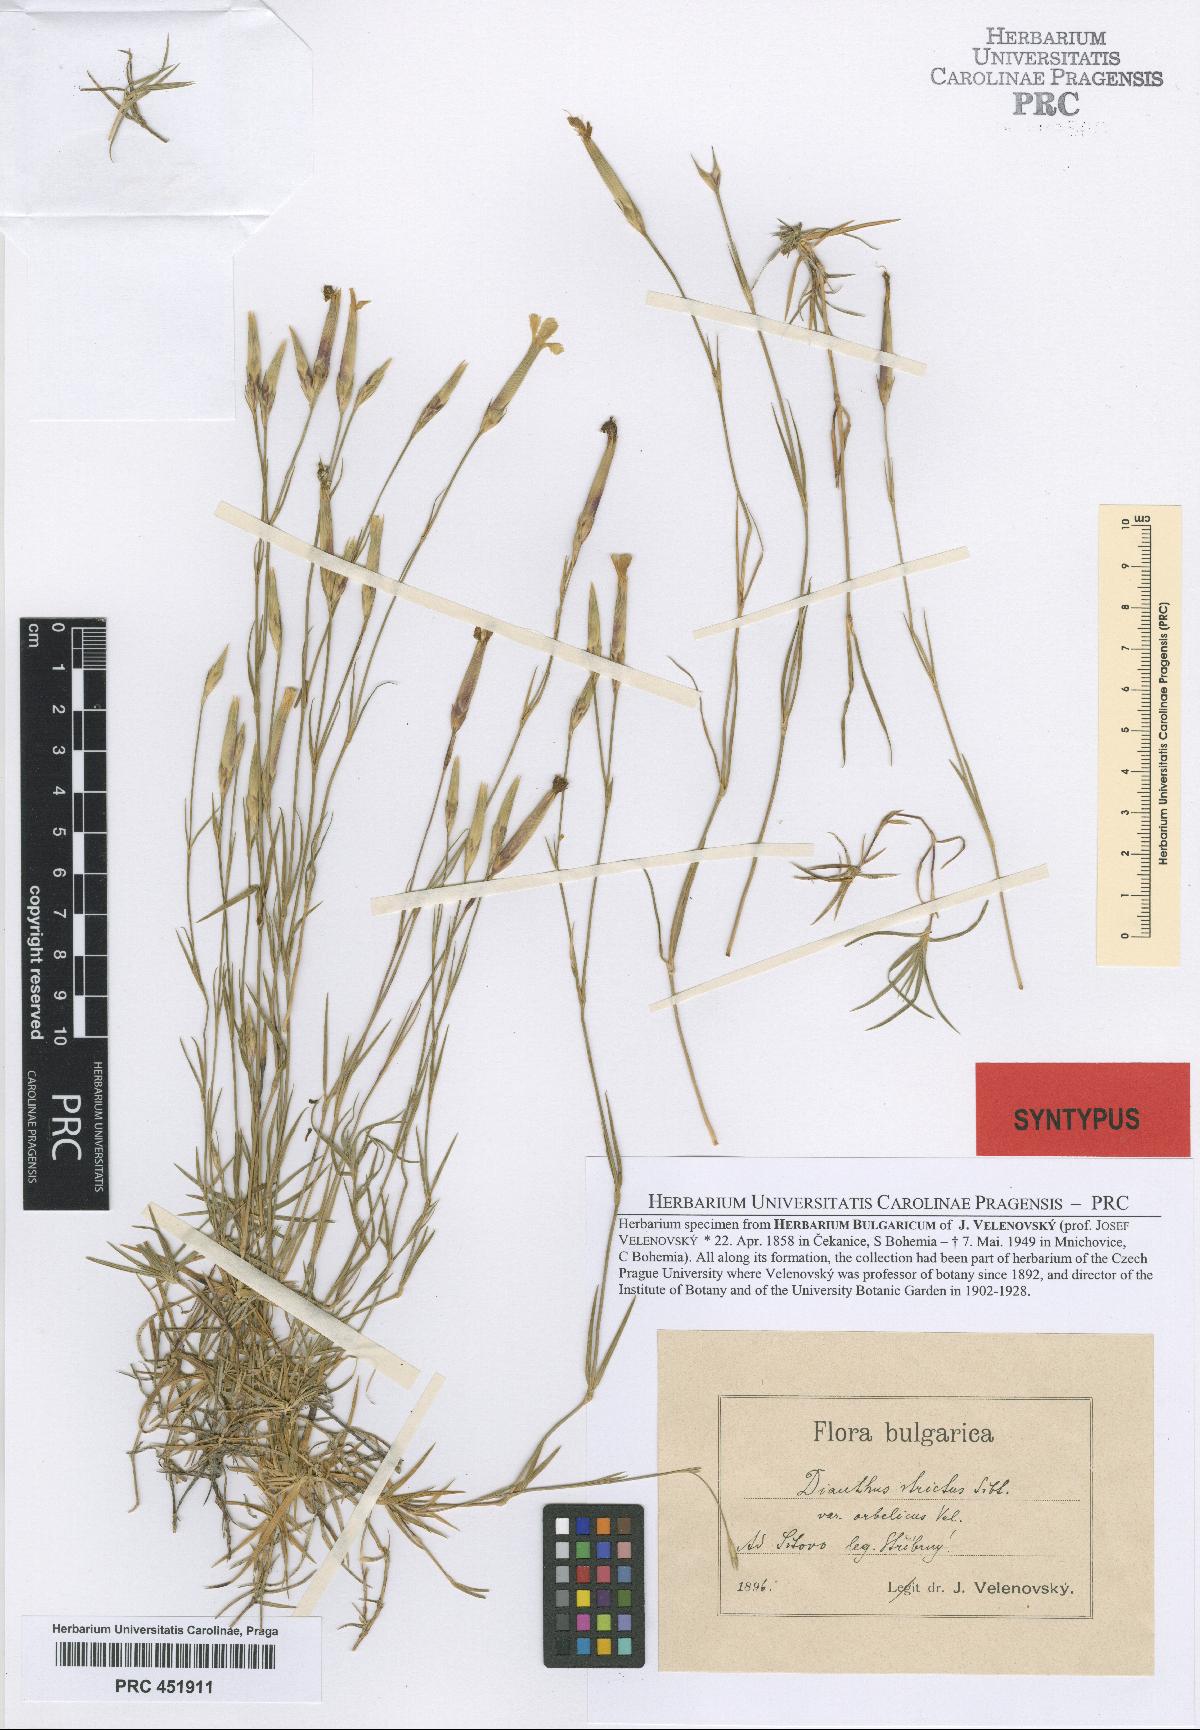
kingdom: Plantae
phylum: Tracheophyta
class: Magnoliopsida
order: Caryophyllales
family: Caryophyllaceae
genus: Dianthus
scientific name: Dianthus petraeus
